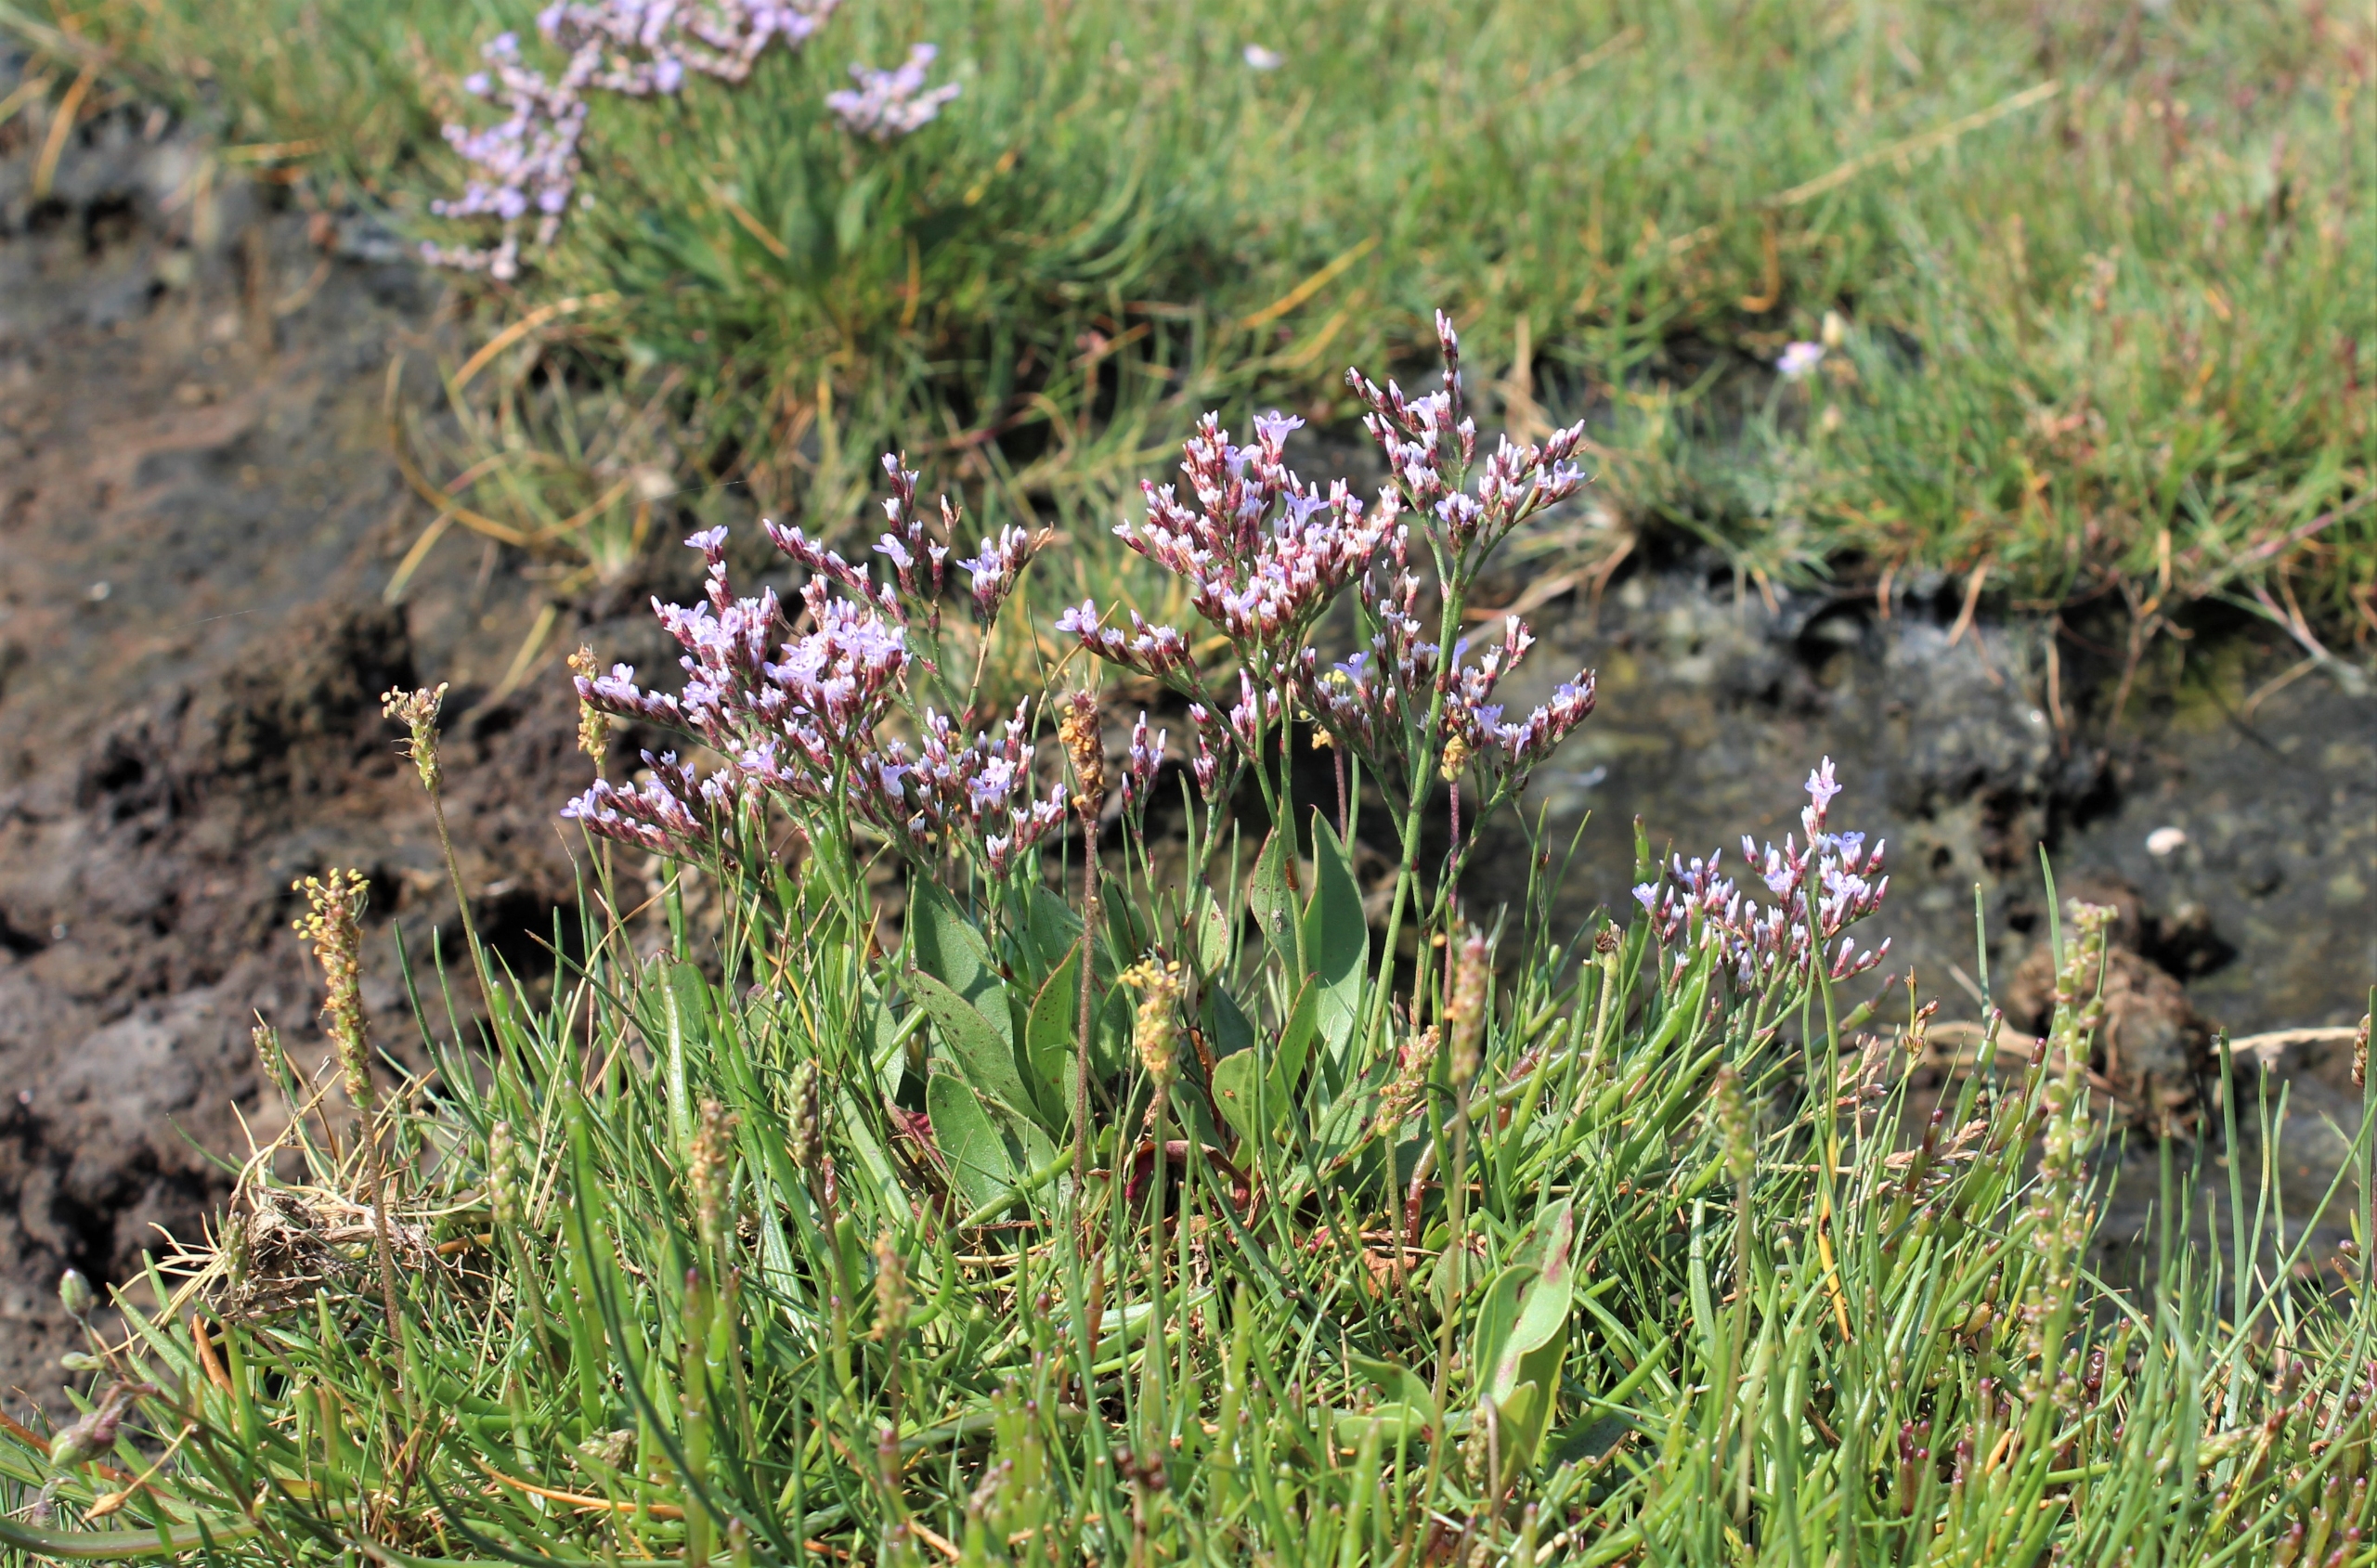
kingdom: Plantae
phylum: Tracheophyta
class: Magnoliopsida
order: Caryophyllales
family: Plumbaginaceae
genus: Limonium
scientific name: Limonium humile
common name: Lav hindebæger
